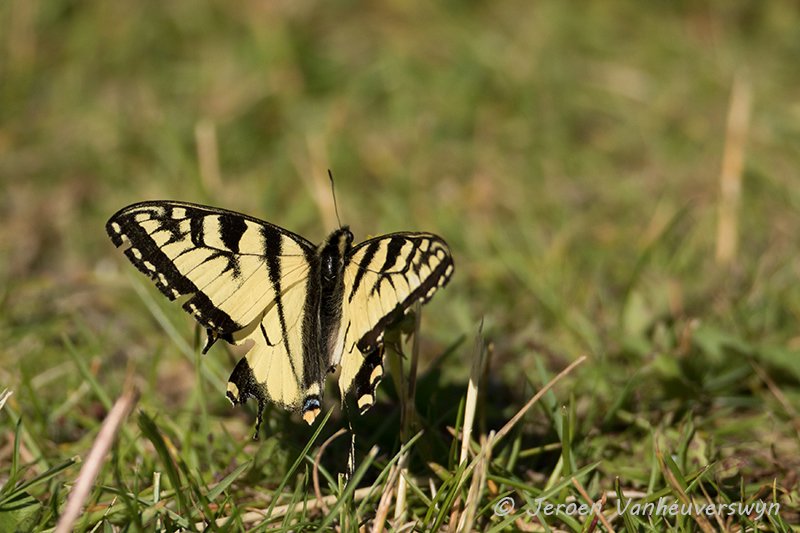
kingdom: Animalia
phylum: Arthropoda
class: Insecta
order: Lepidoptera
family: Papilionidae
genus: Pterourus
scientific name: Pterourus canadensis
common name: Canadian Tiger Swallowtail
